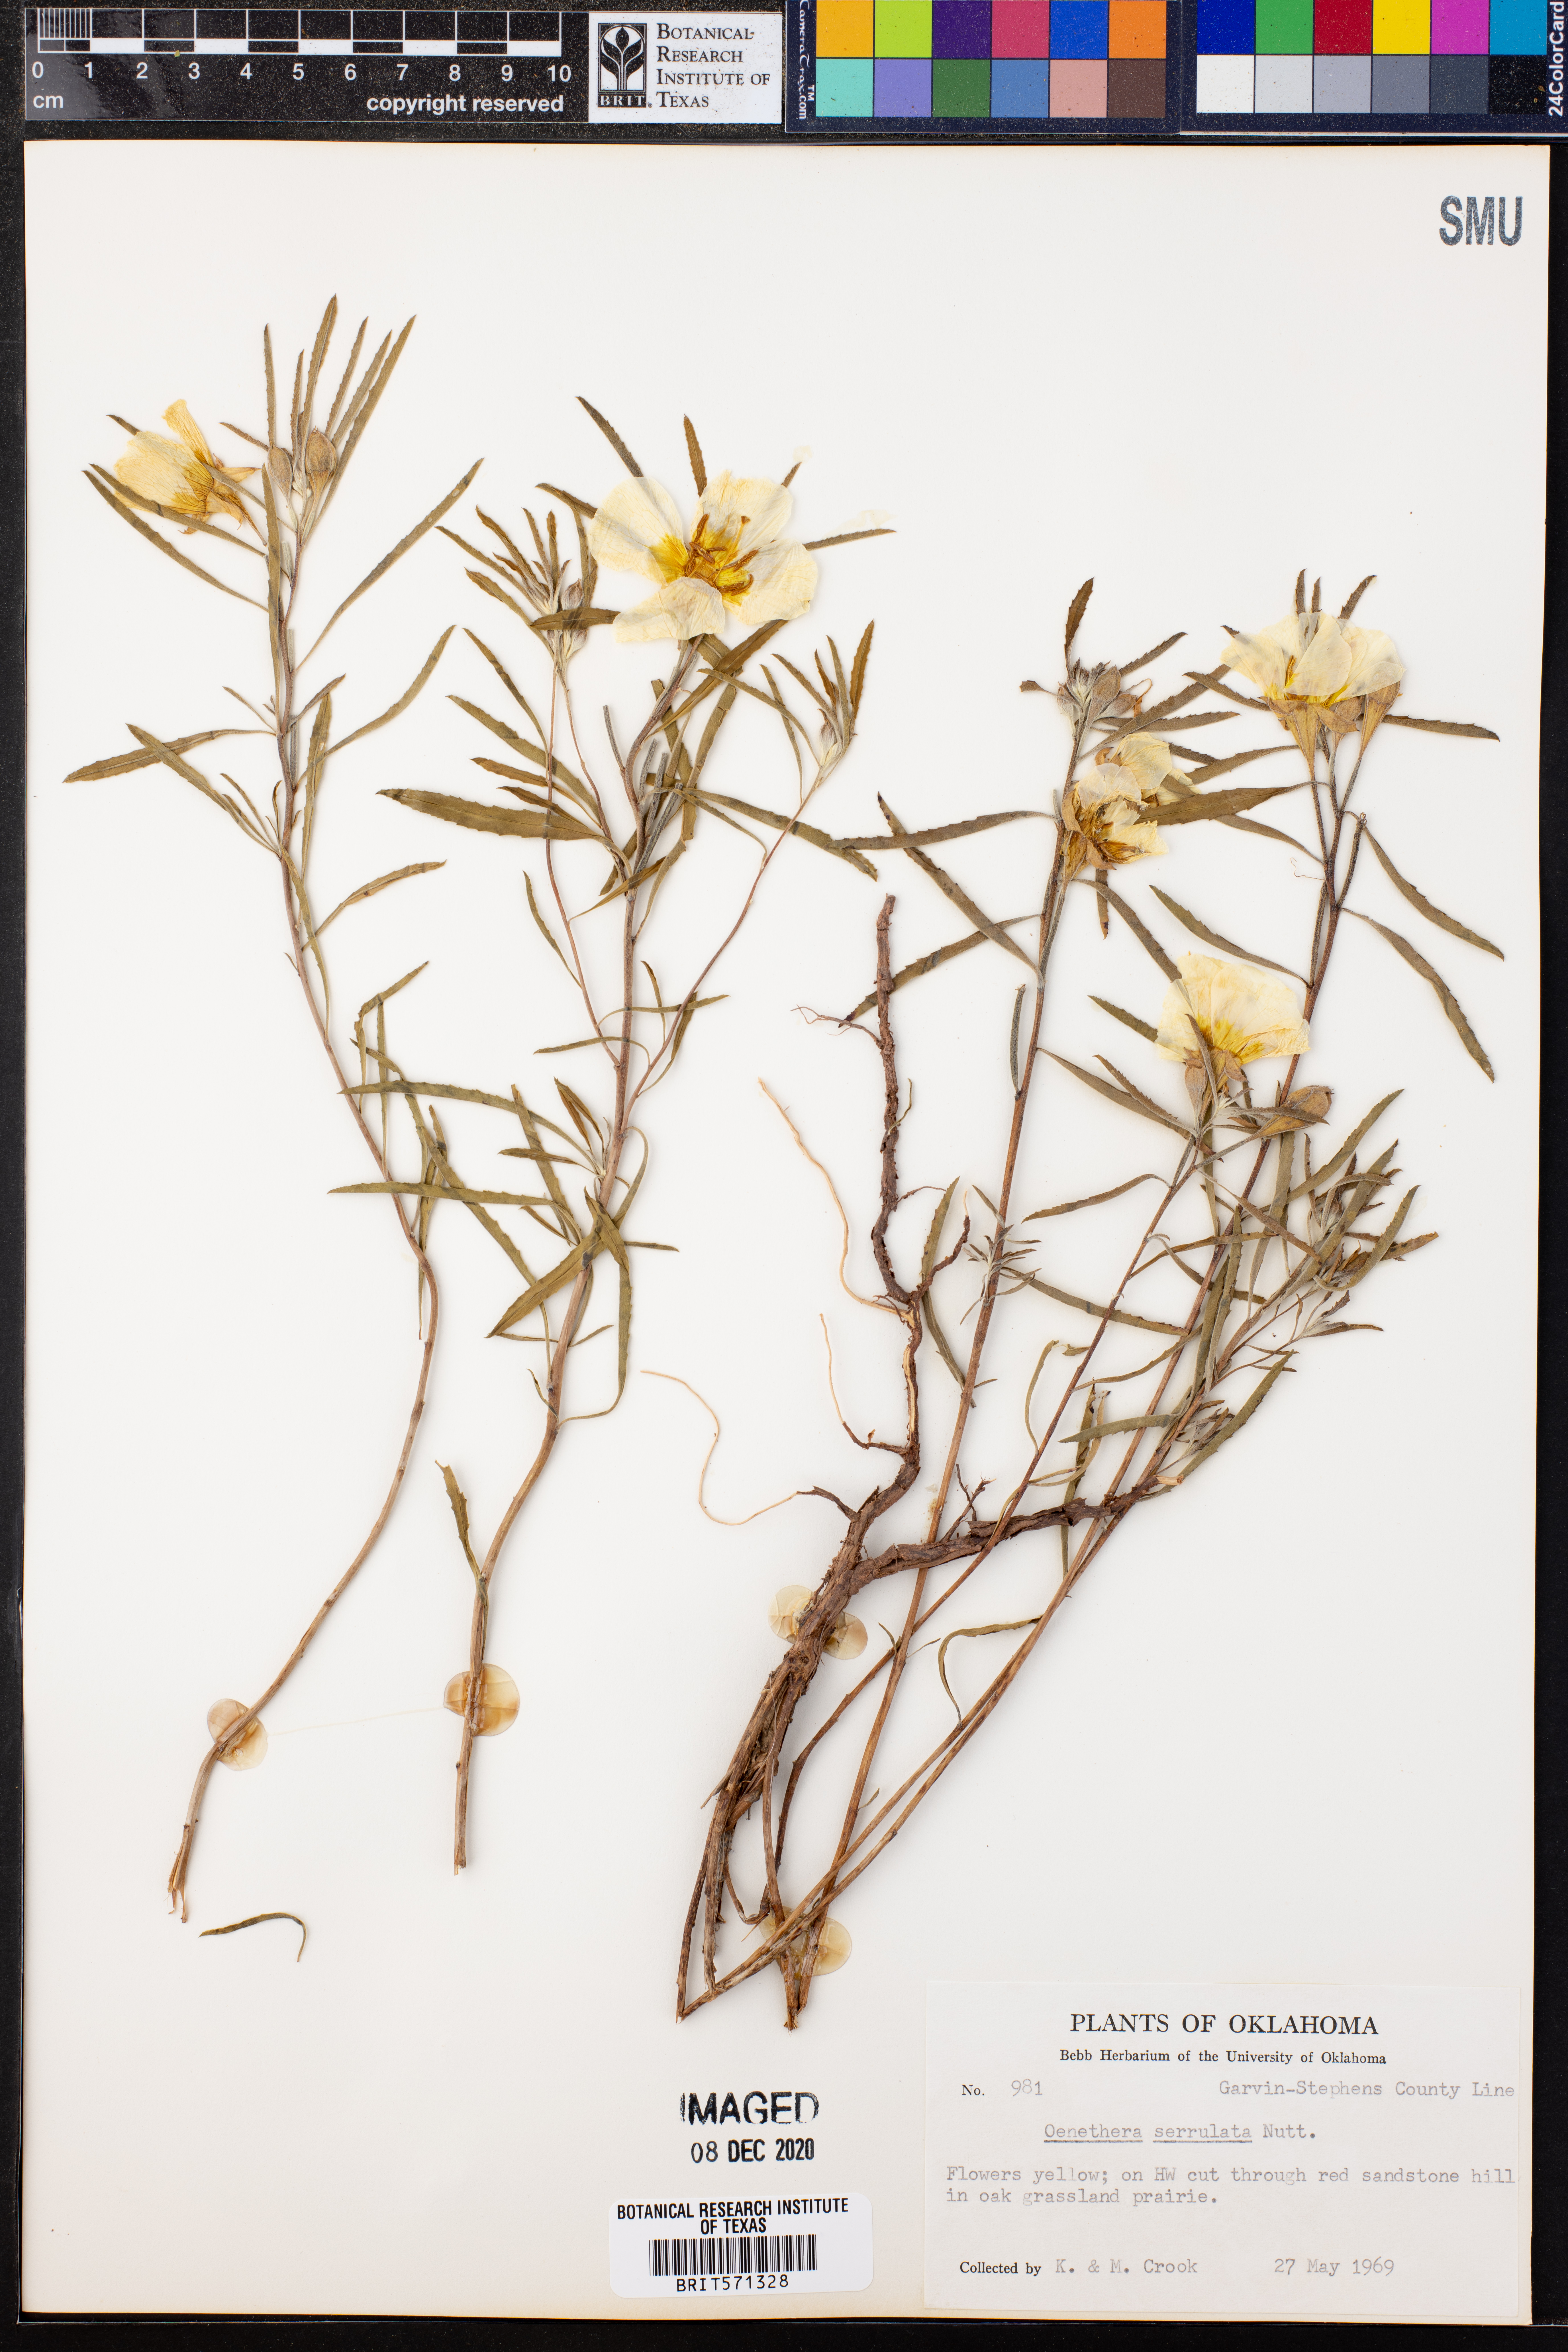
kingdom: Plantae
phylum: Tracheophyta
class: Magnoliopsida
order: Myrtales
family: Onagraceae
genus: Oenothera
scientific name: Oenothera serrulata
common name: Half-shrub calylophus
